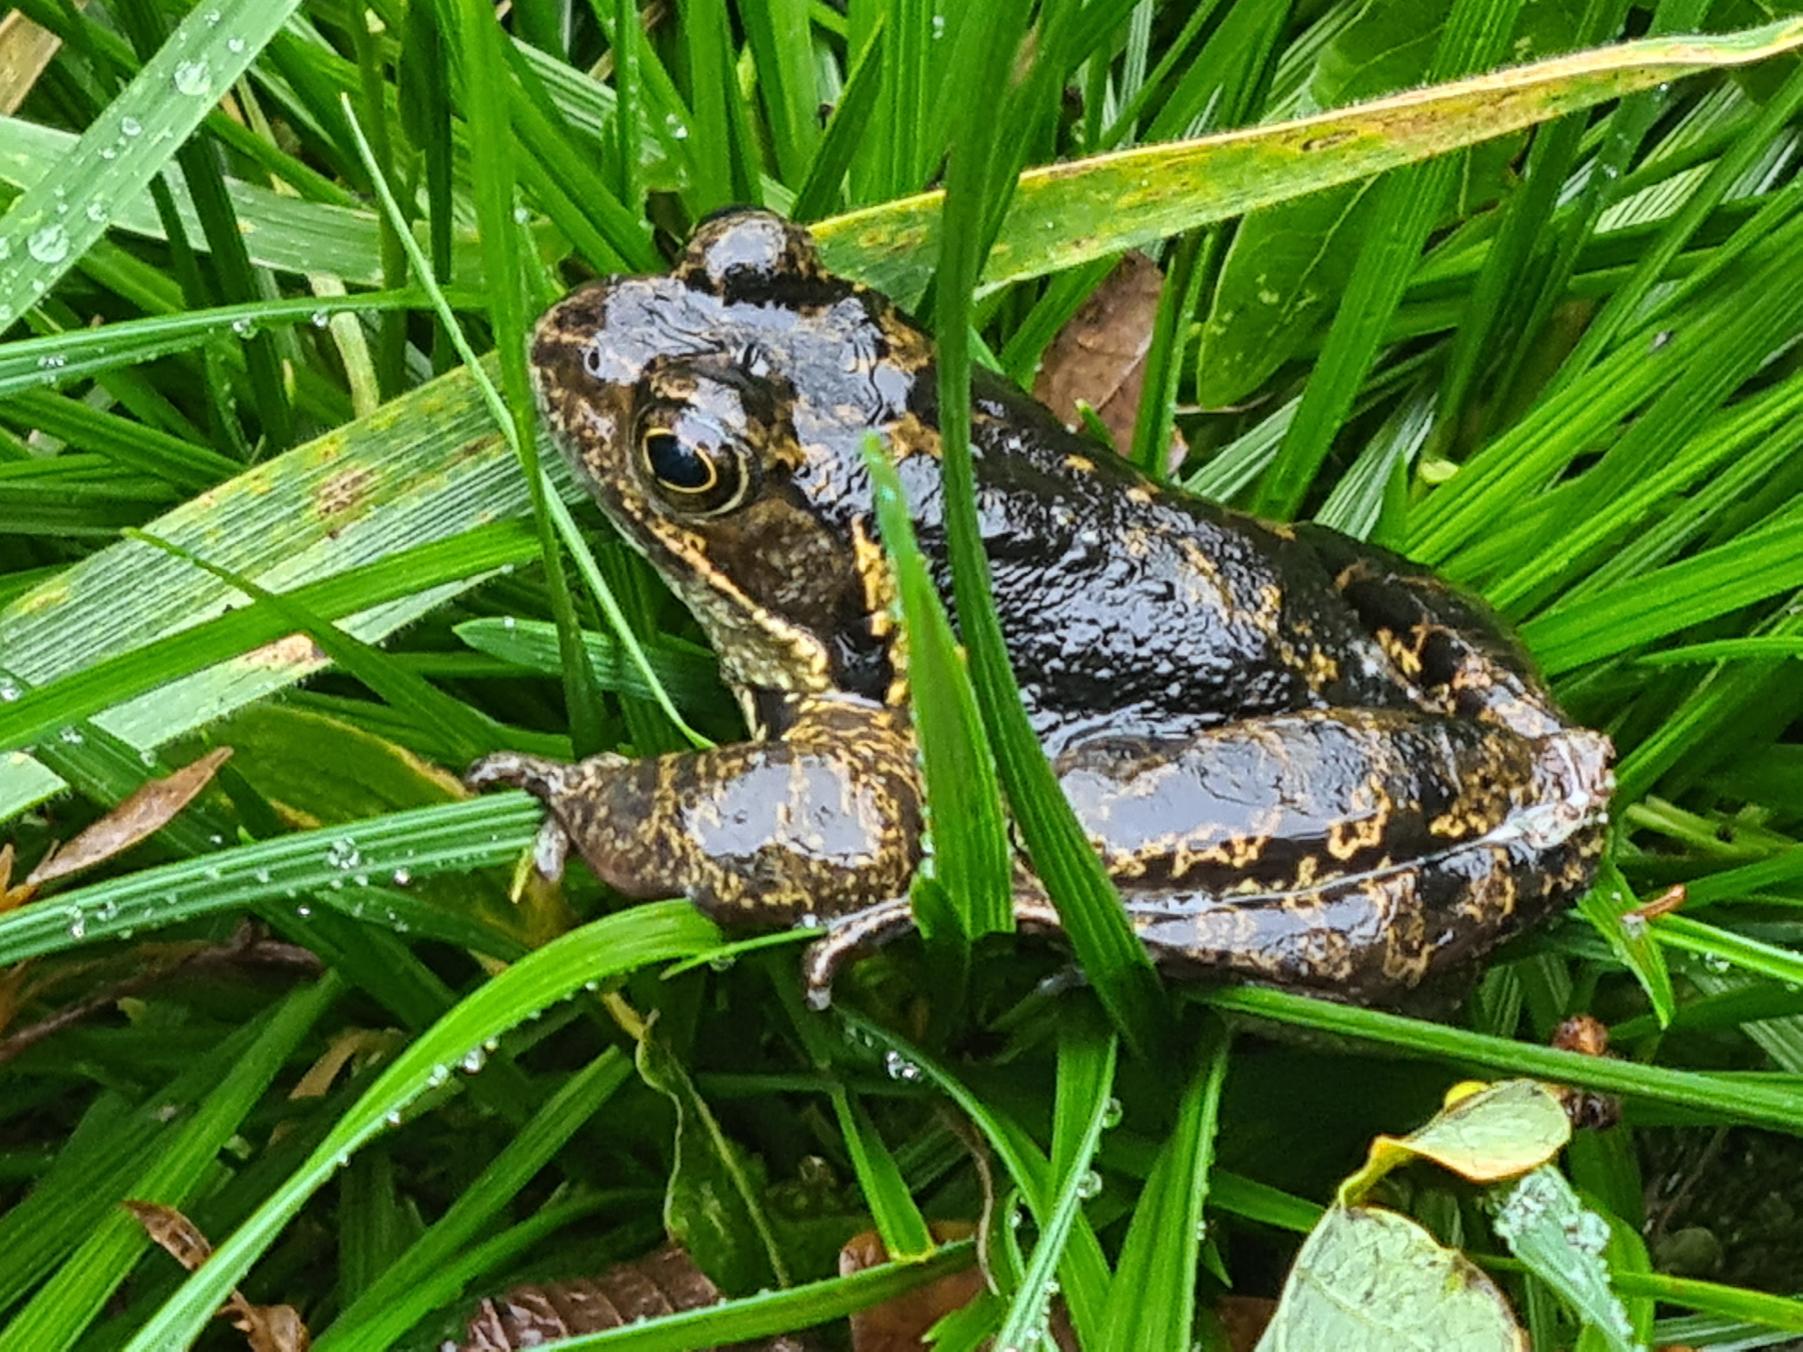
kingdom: Animalia
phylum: Chordata
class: Amphibia
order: Anura
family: Ranidae
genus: Rana
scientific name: Rana temporaria
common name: Butsnudet frø
